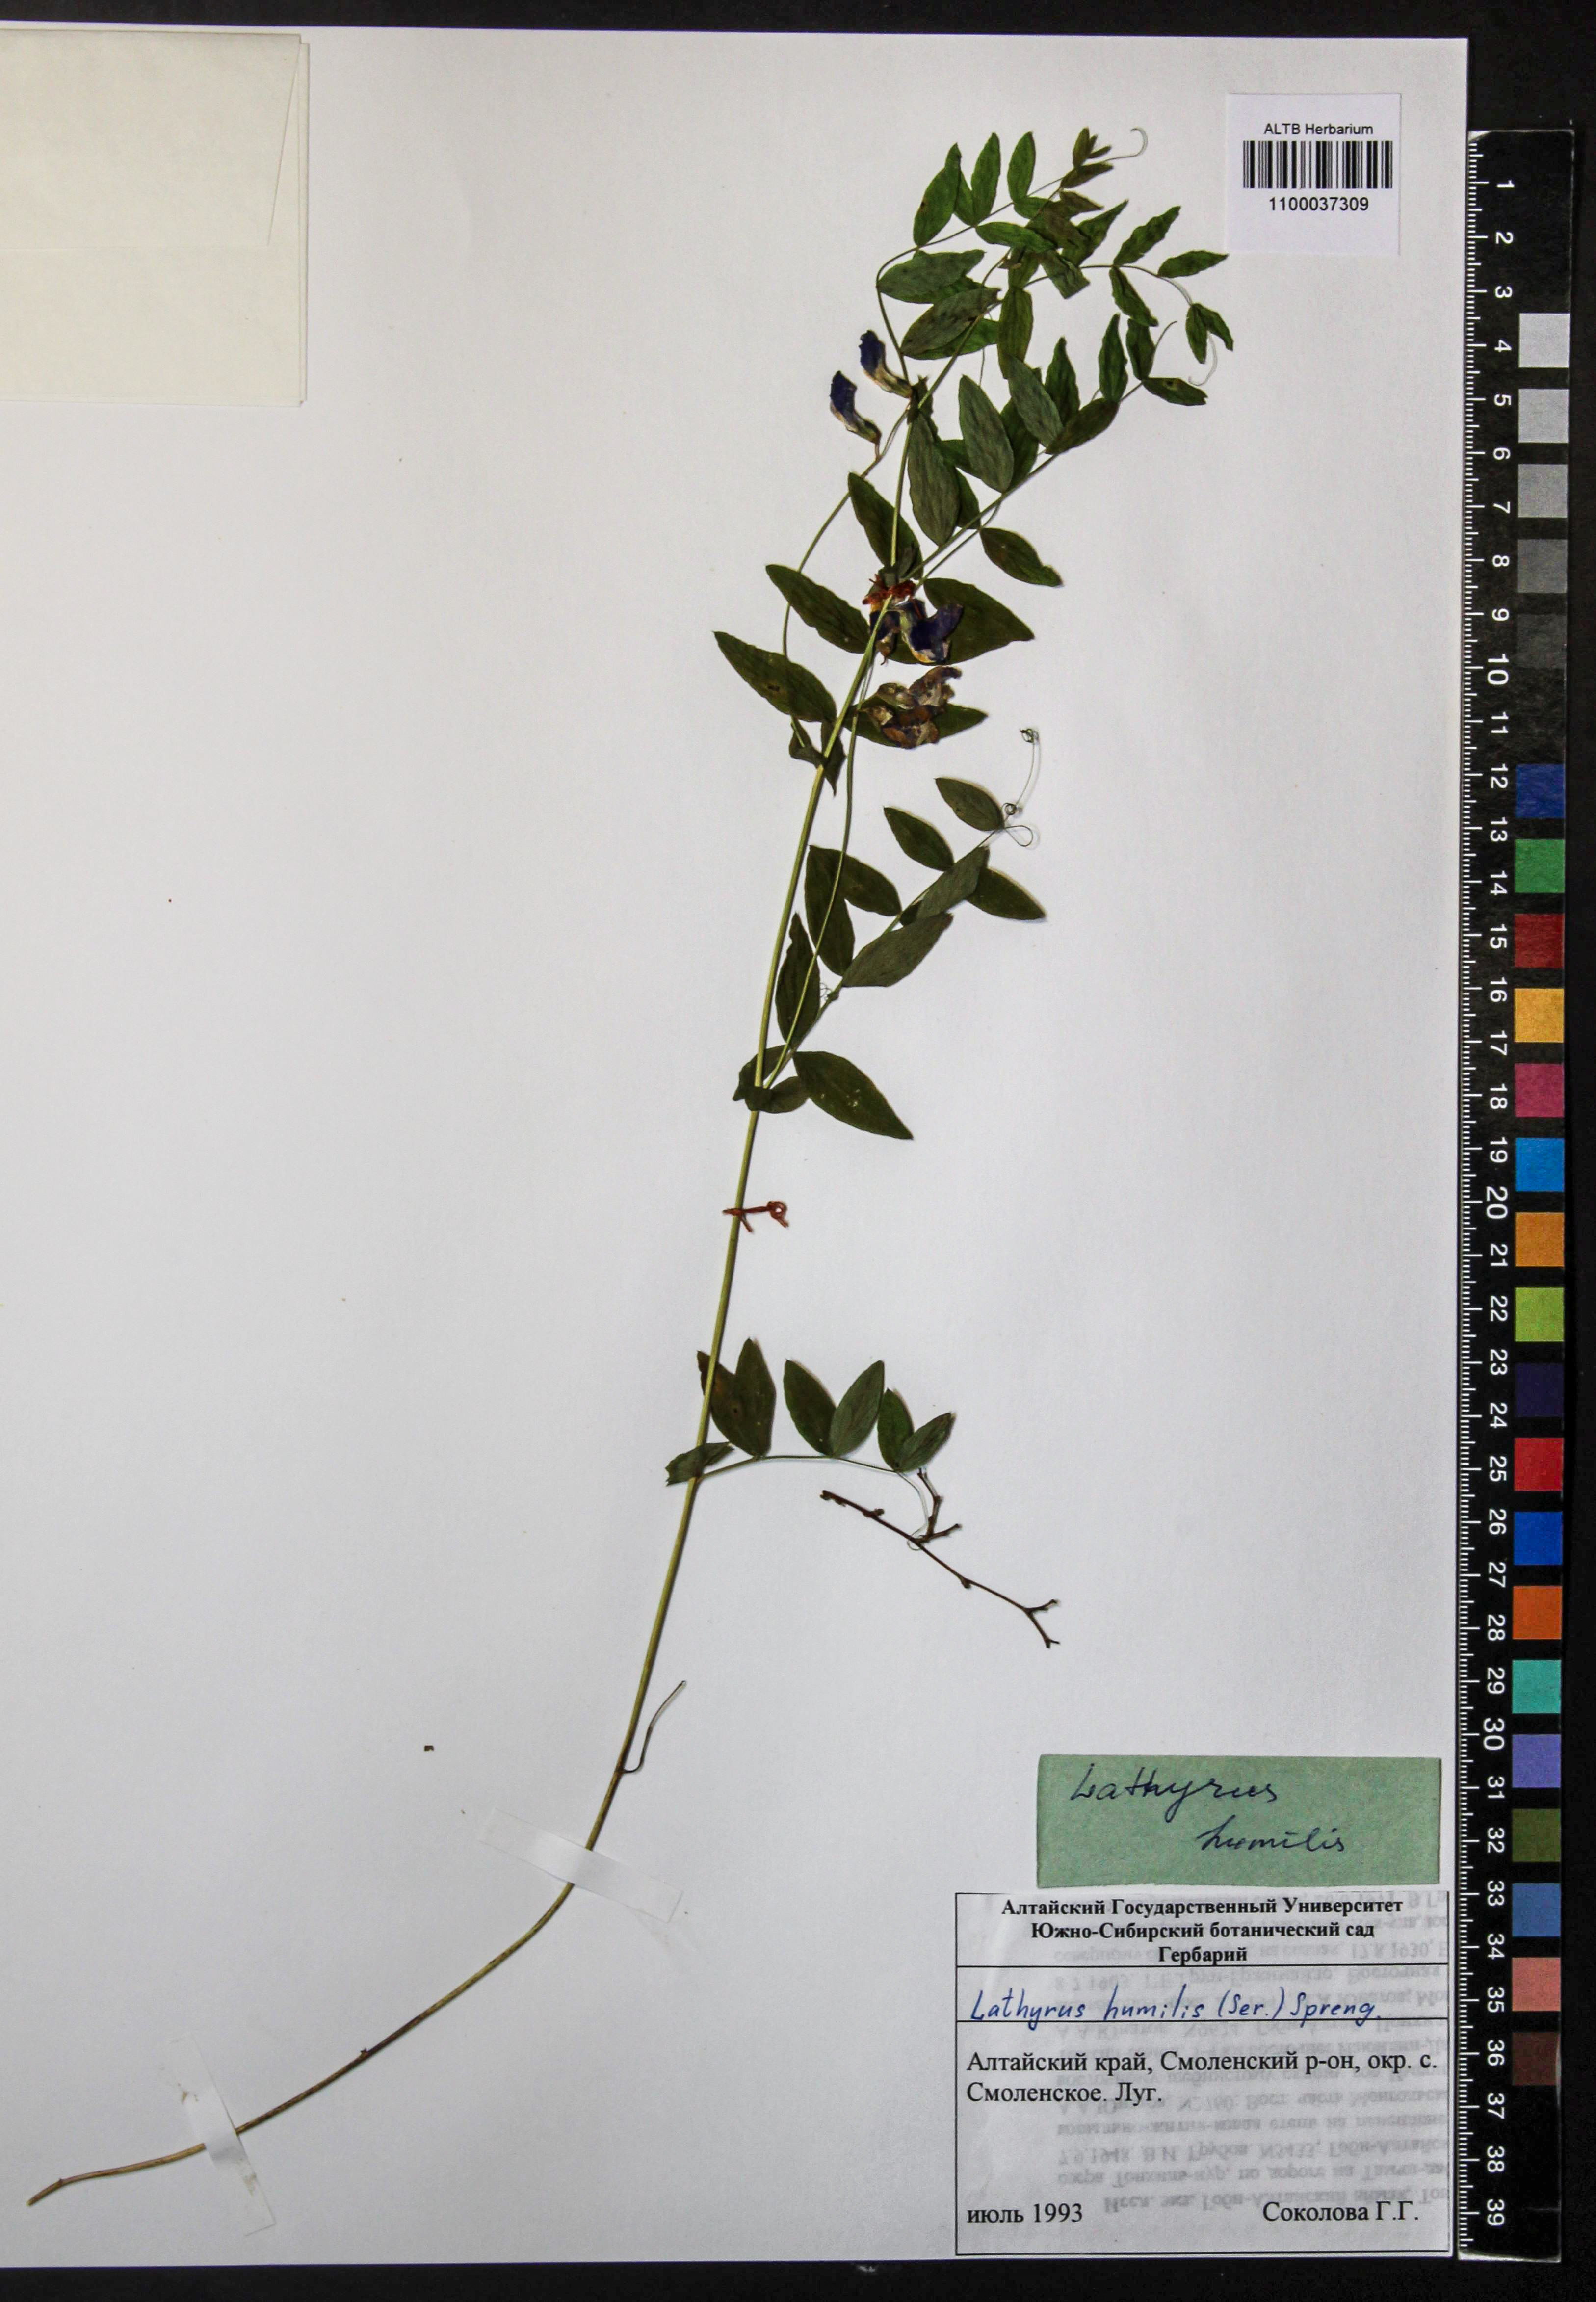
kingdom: Plantae
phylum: Tracheophyta
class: Magnoliopsida
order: Fabales
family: Fabaceae
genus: Lathyrus
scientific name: Lathyrus humilis
